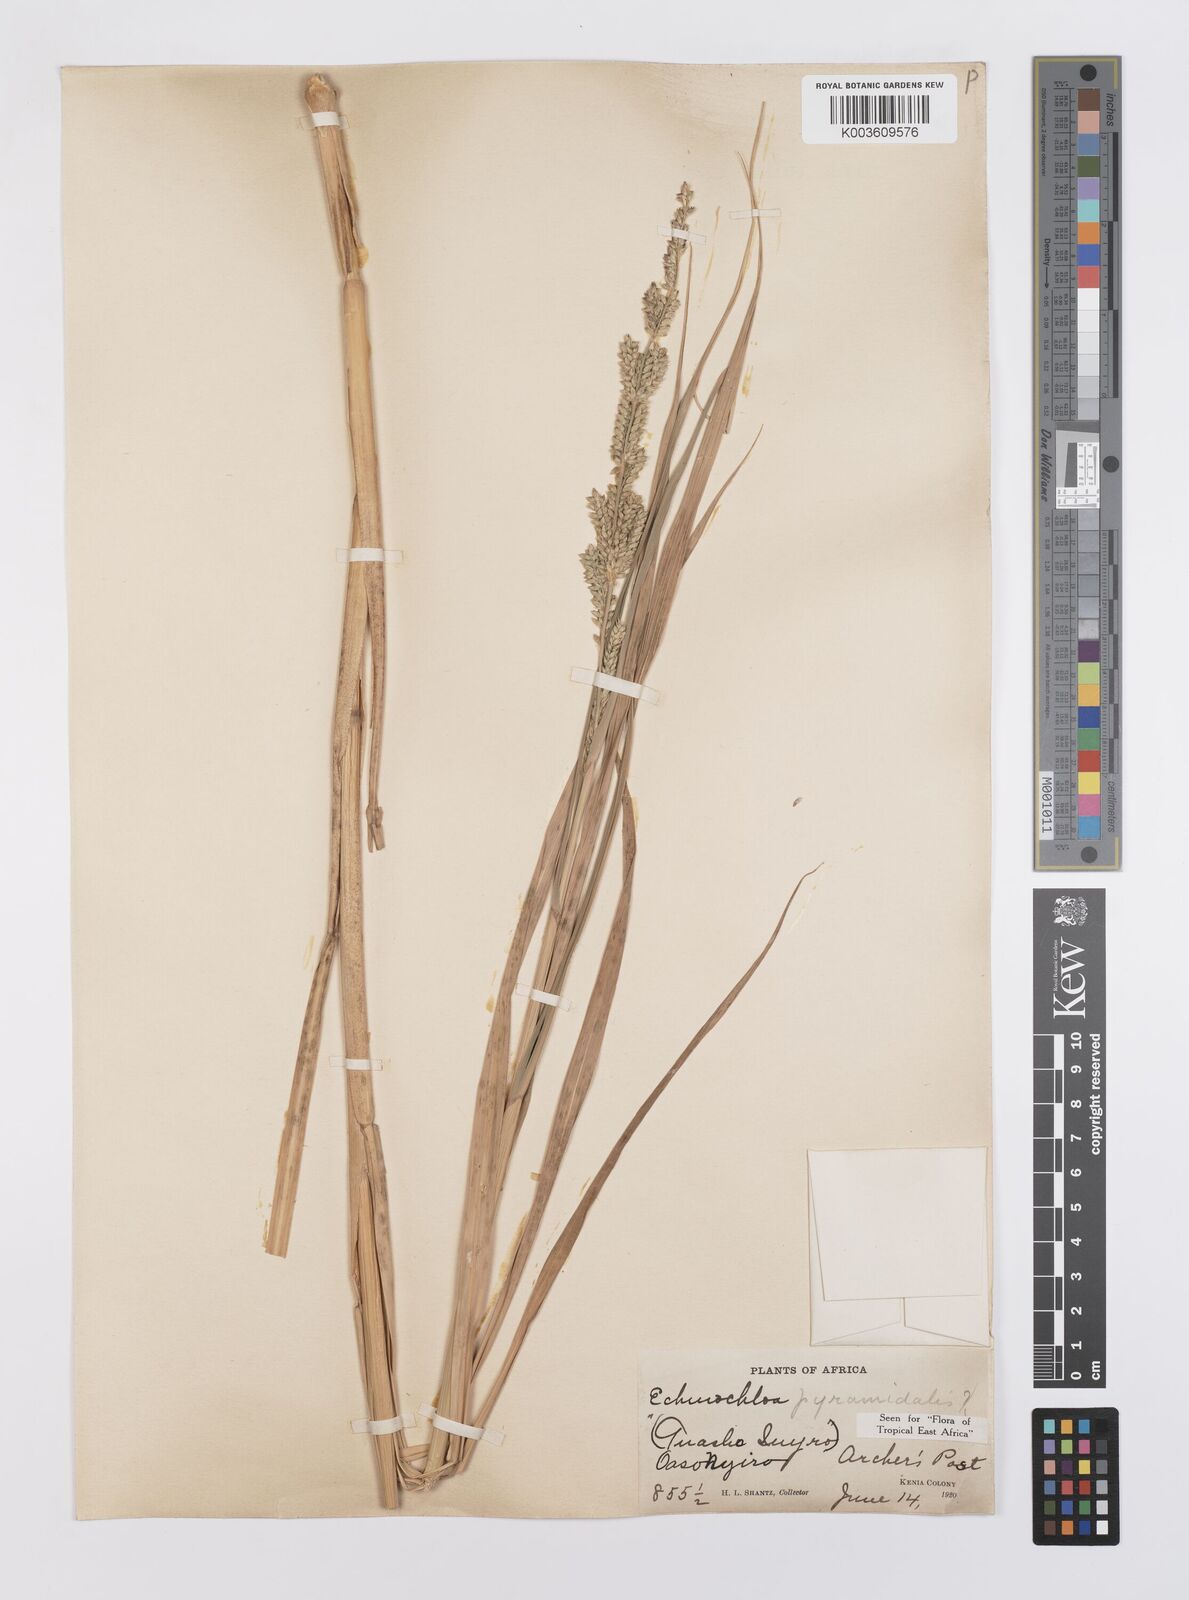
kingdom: Plantae
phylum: Tracheophyta
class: Liliopsida
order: Poales
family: Poaceae
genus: Echinochloa
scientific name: Echinochloa pyramidalis
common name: Antelope grass
